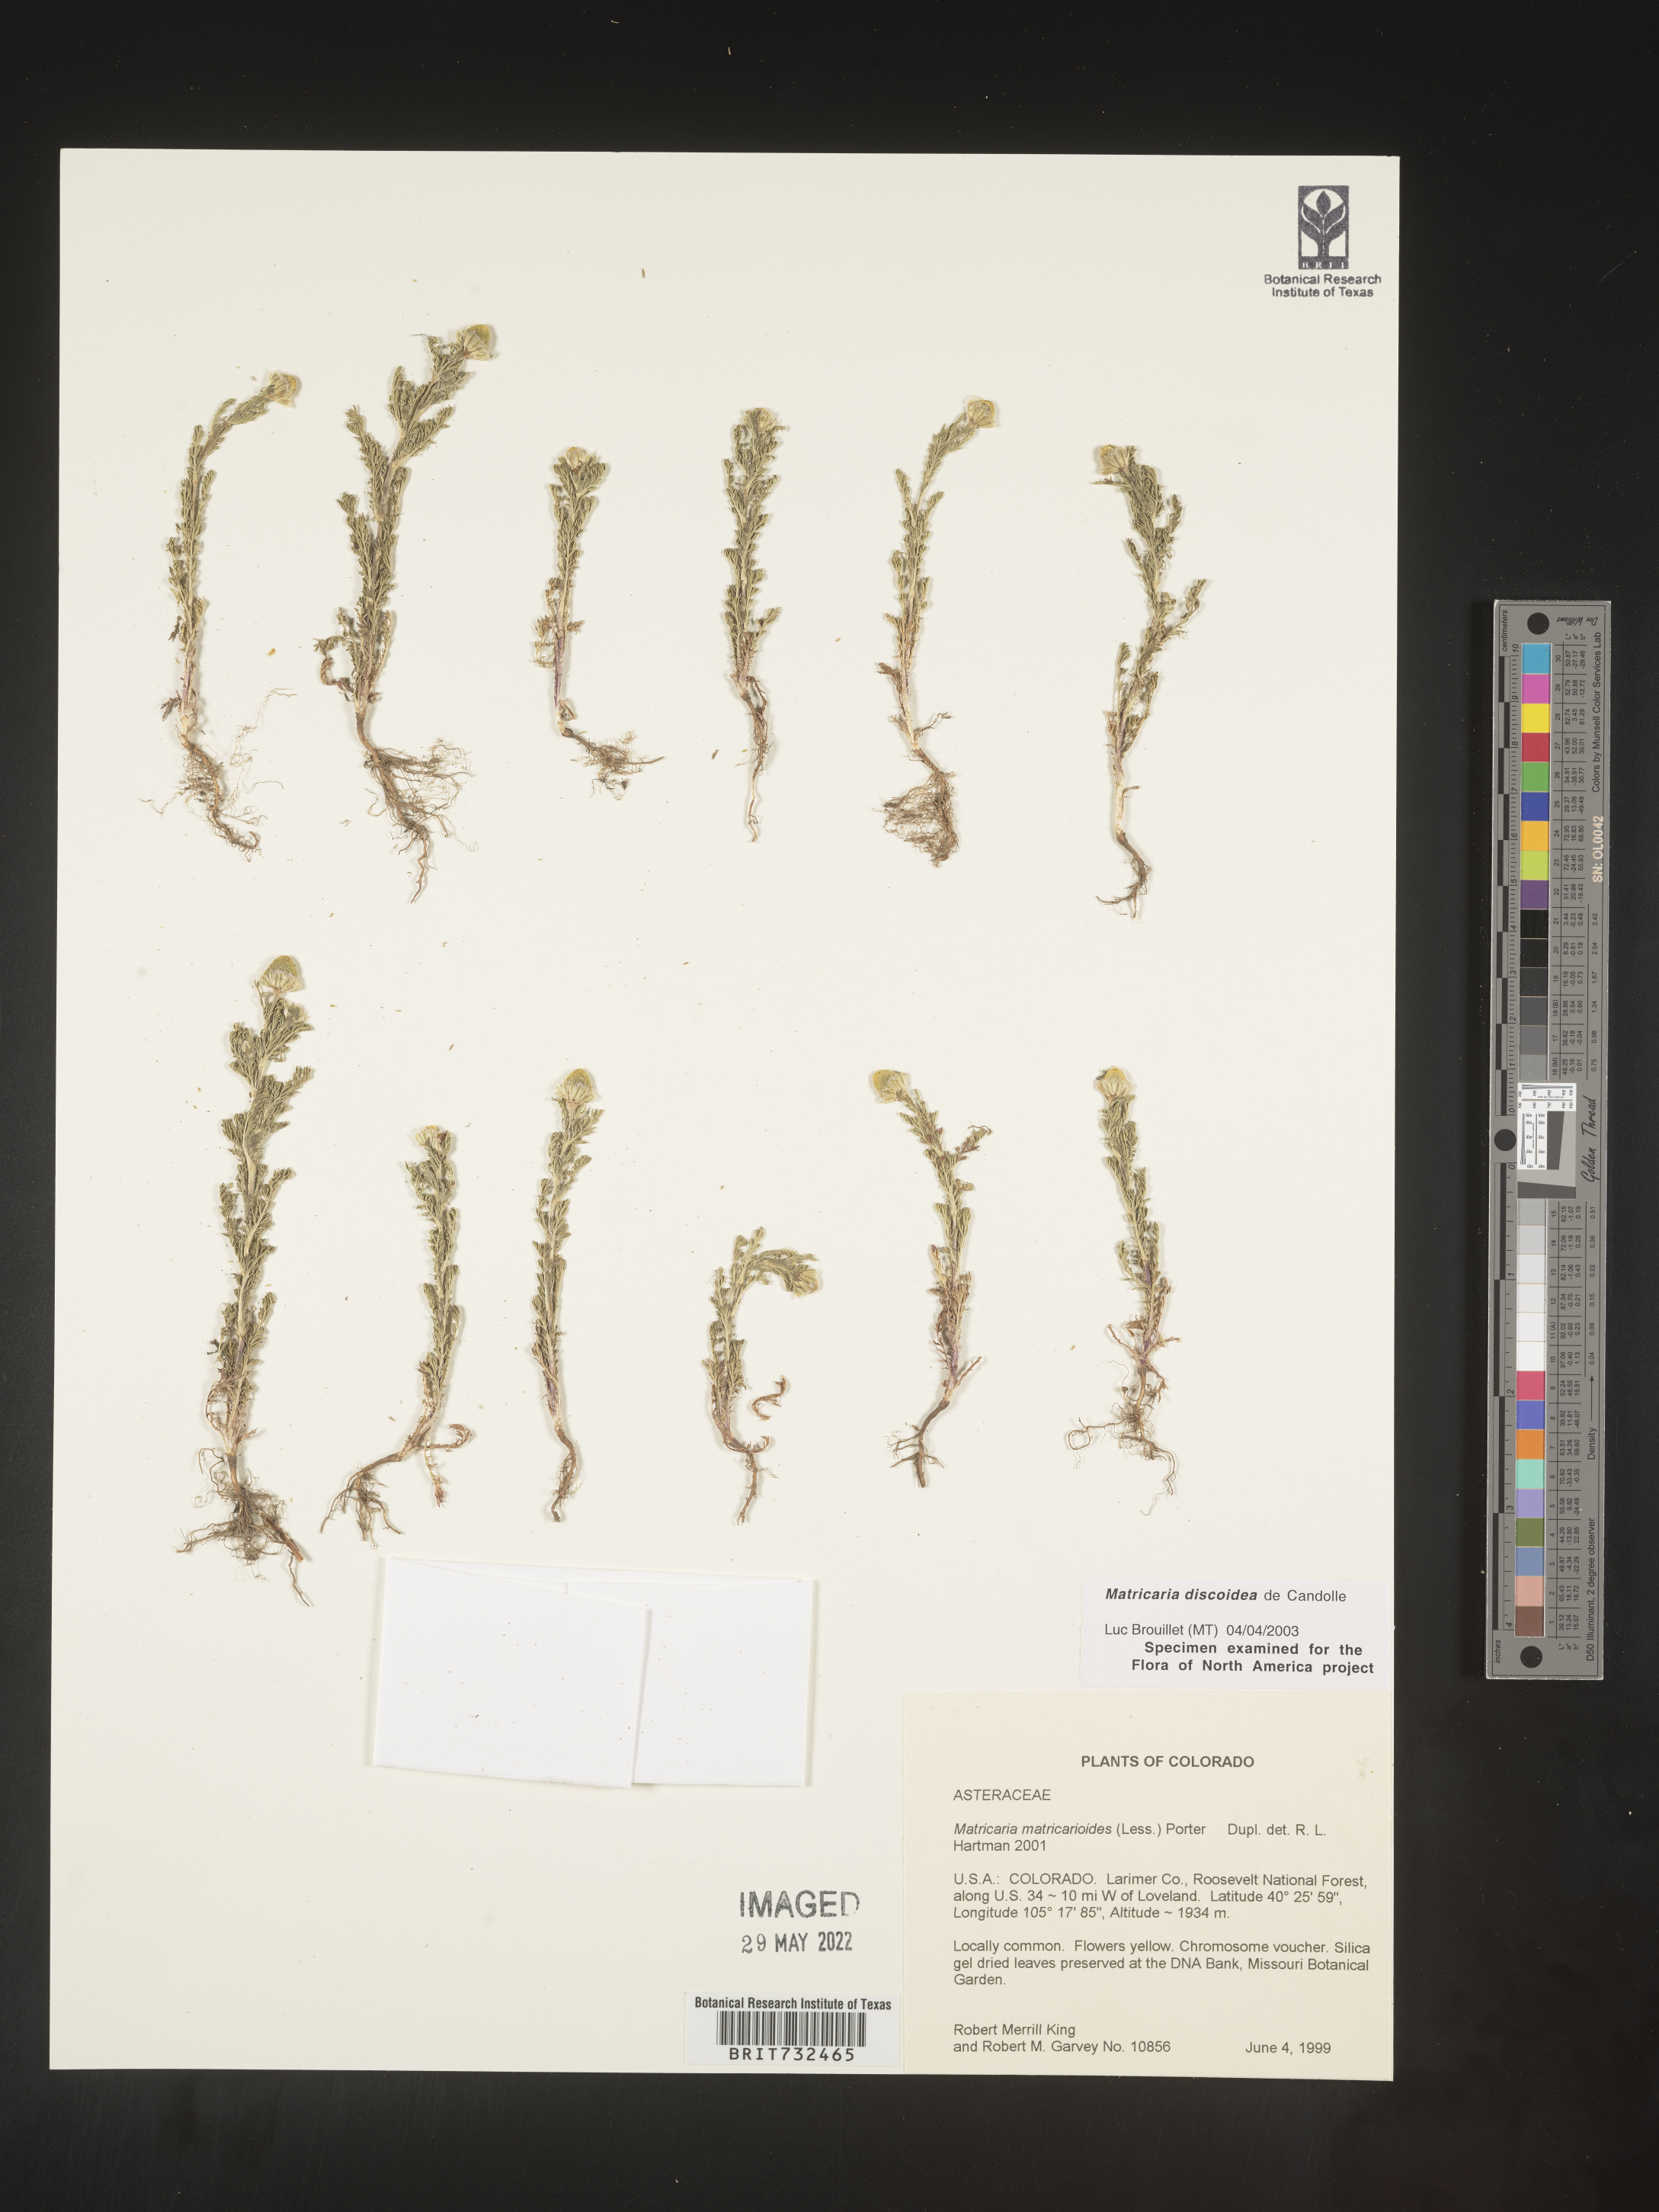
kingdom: Plantae
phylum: Tracheophyta
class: Magnoliopsida
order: Asterales
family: Asteraceae
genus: Matricaria
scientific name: Matricaria discoidea
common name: Disc mayweed
